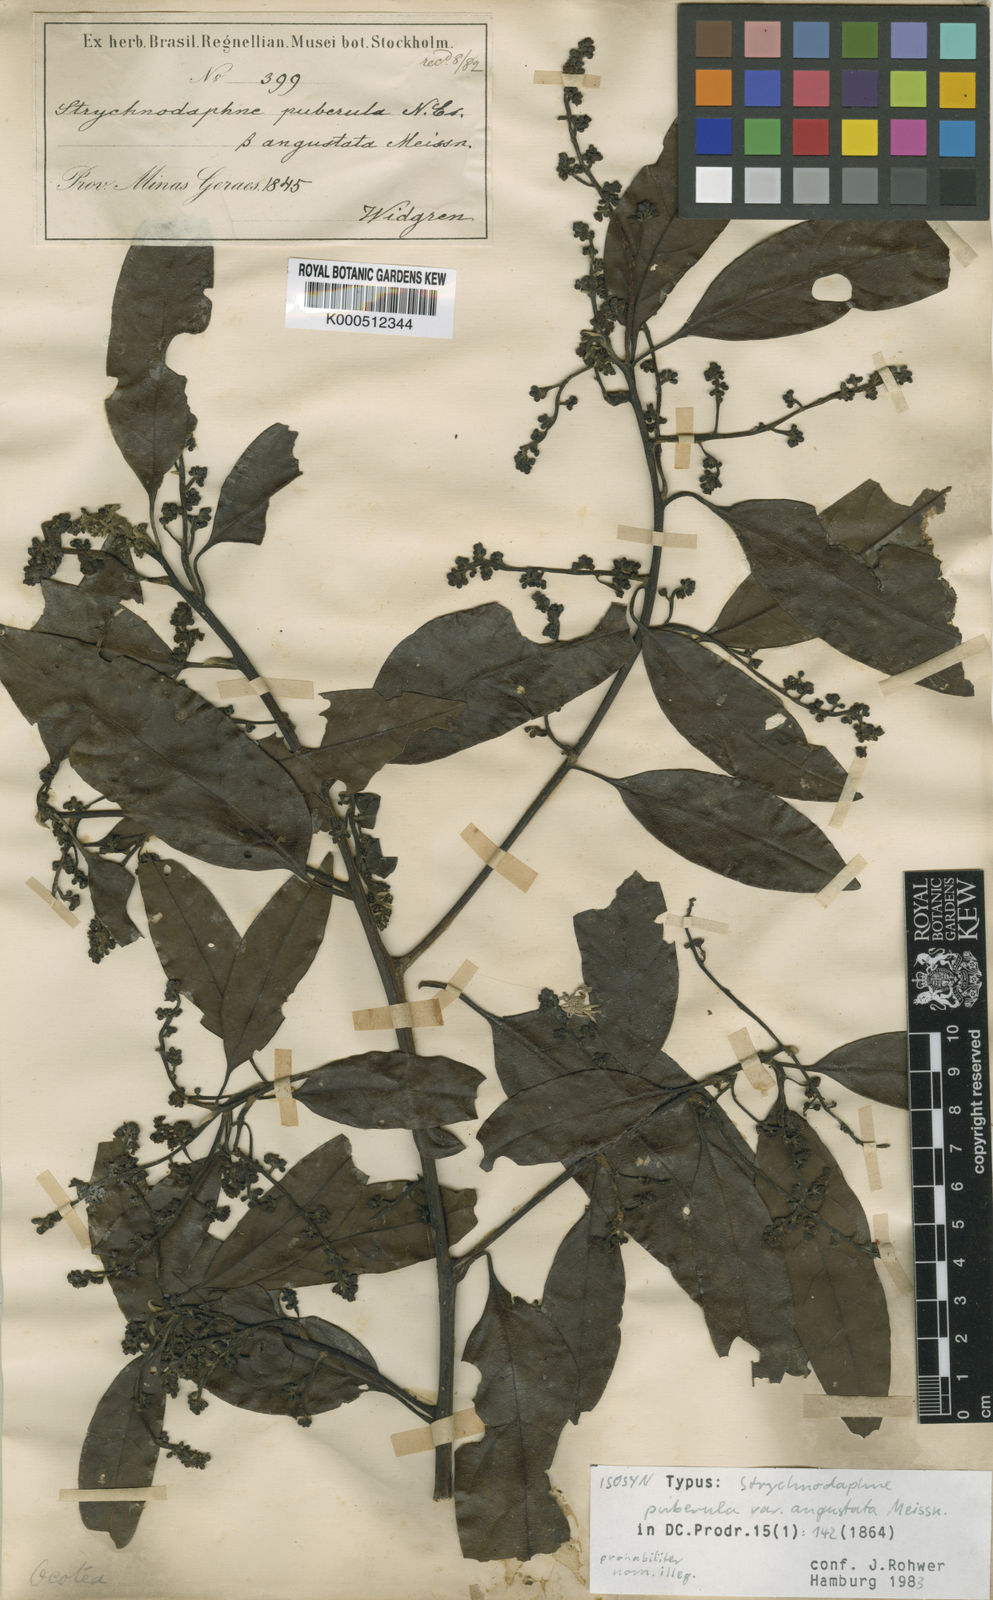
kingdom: Plantae
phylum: Tracheophyta
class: Magnoliopsida
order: Laurales
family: Lauraceae
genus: Ocotea
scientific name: Ocotea puberula
